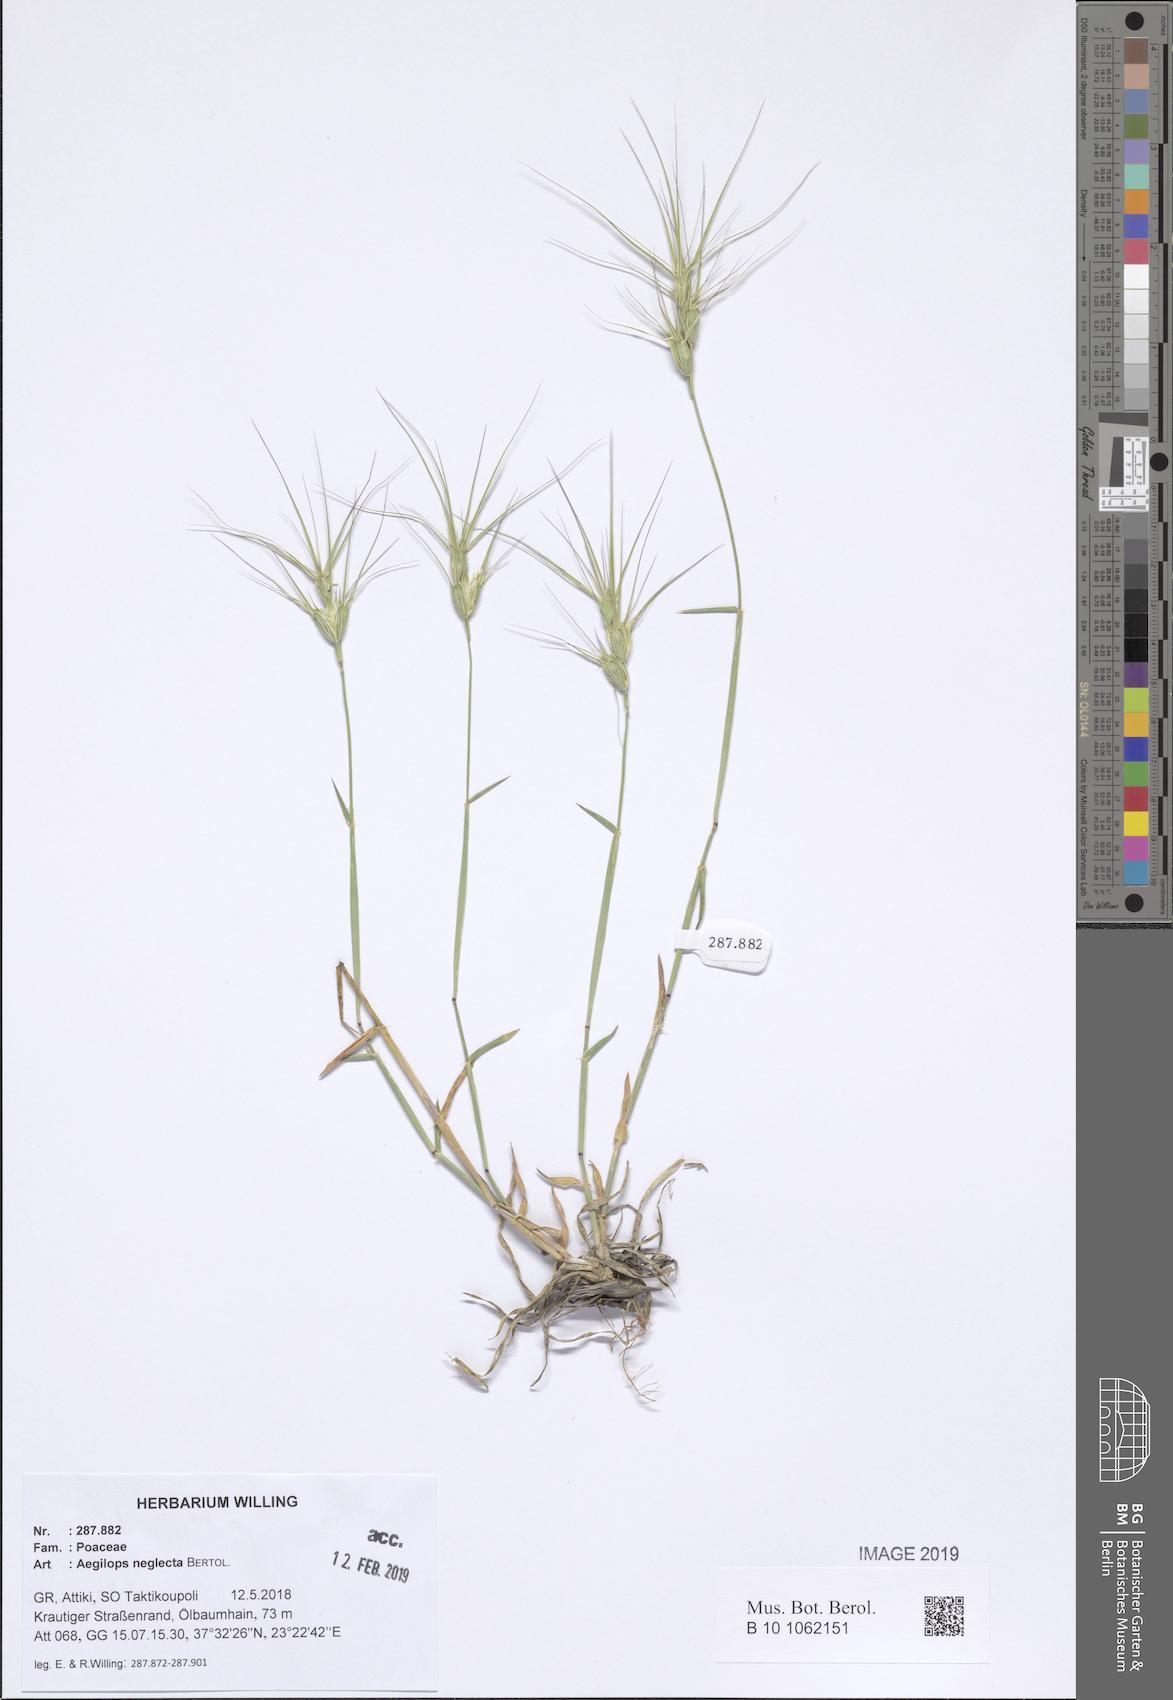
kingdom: Plantae
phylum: Tracheophyta
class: Liliopsida
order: Poales
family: Poaceae
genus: Aegilops
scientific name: Aegilops neglecta
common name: Three-awn goat grass
